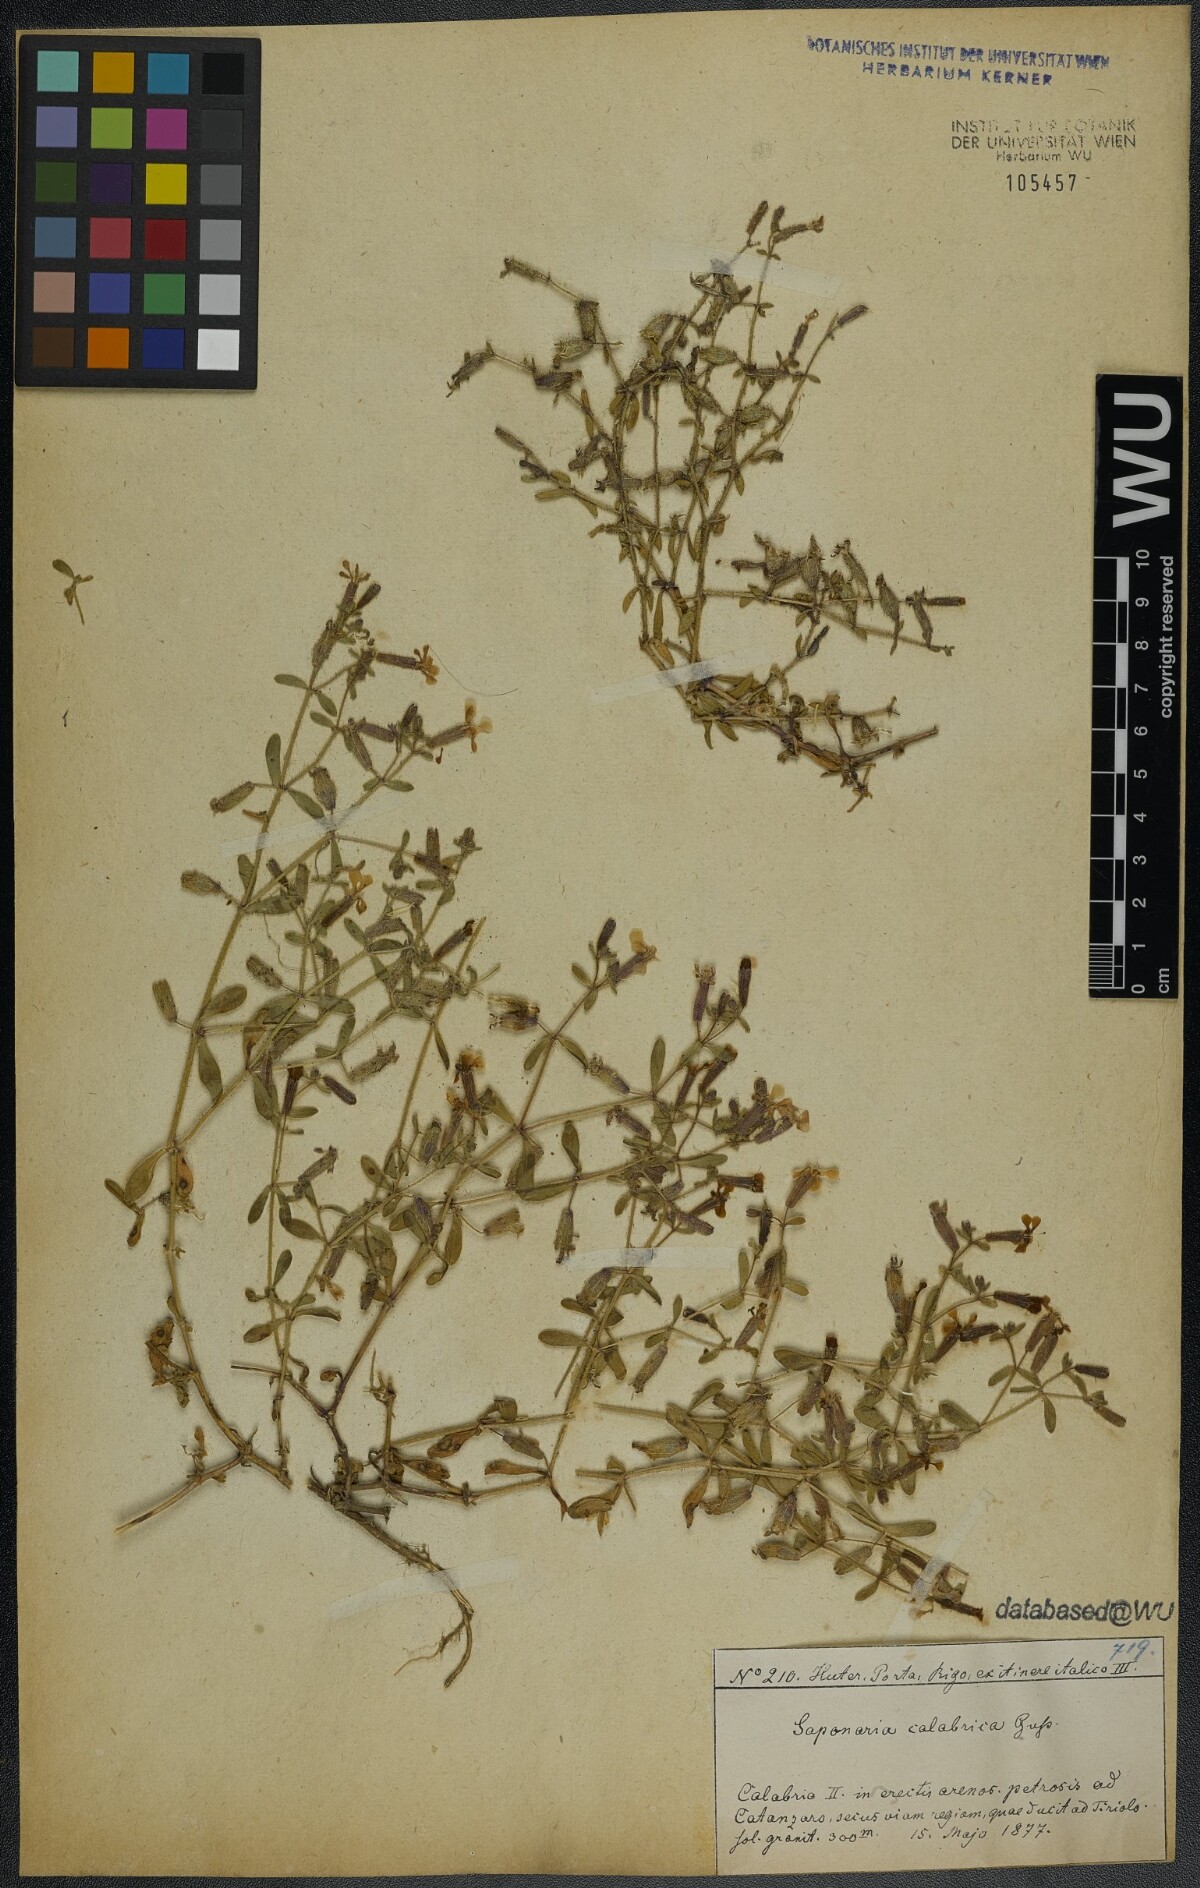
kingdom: Plantae
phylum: Tracheophyta
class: Magnoliopsida
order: Caryophyllales
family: Caryophyllaceae
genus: Saponaria
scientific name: Saponaria calabrica
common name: Adriatic soapwort
